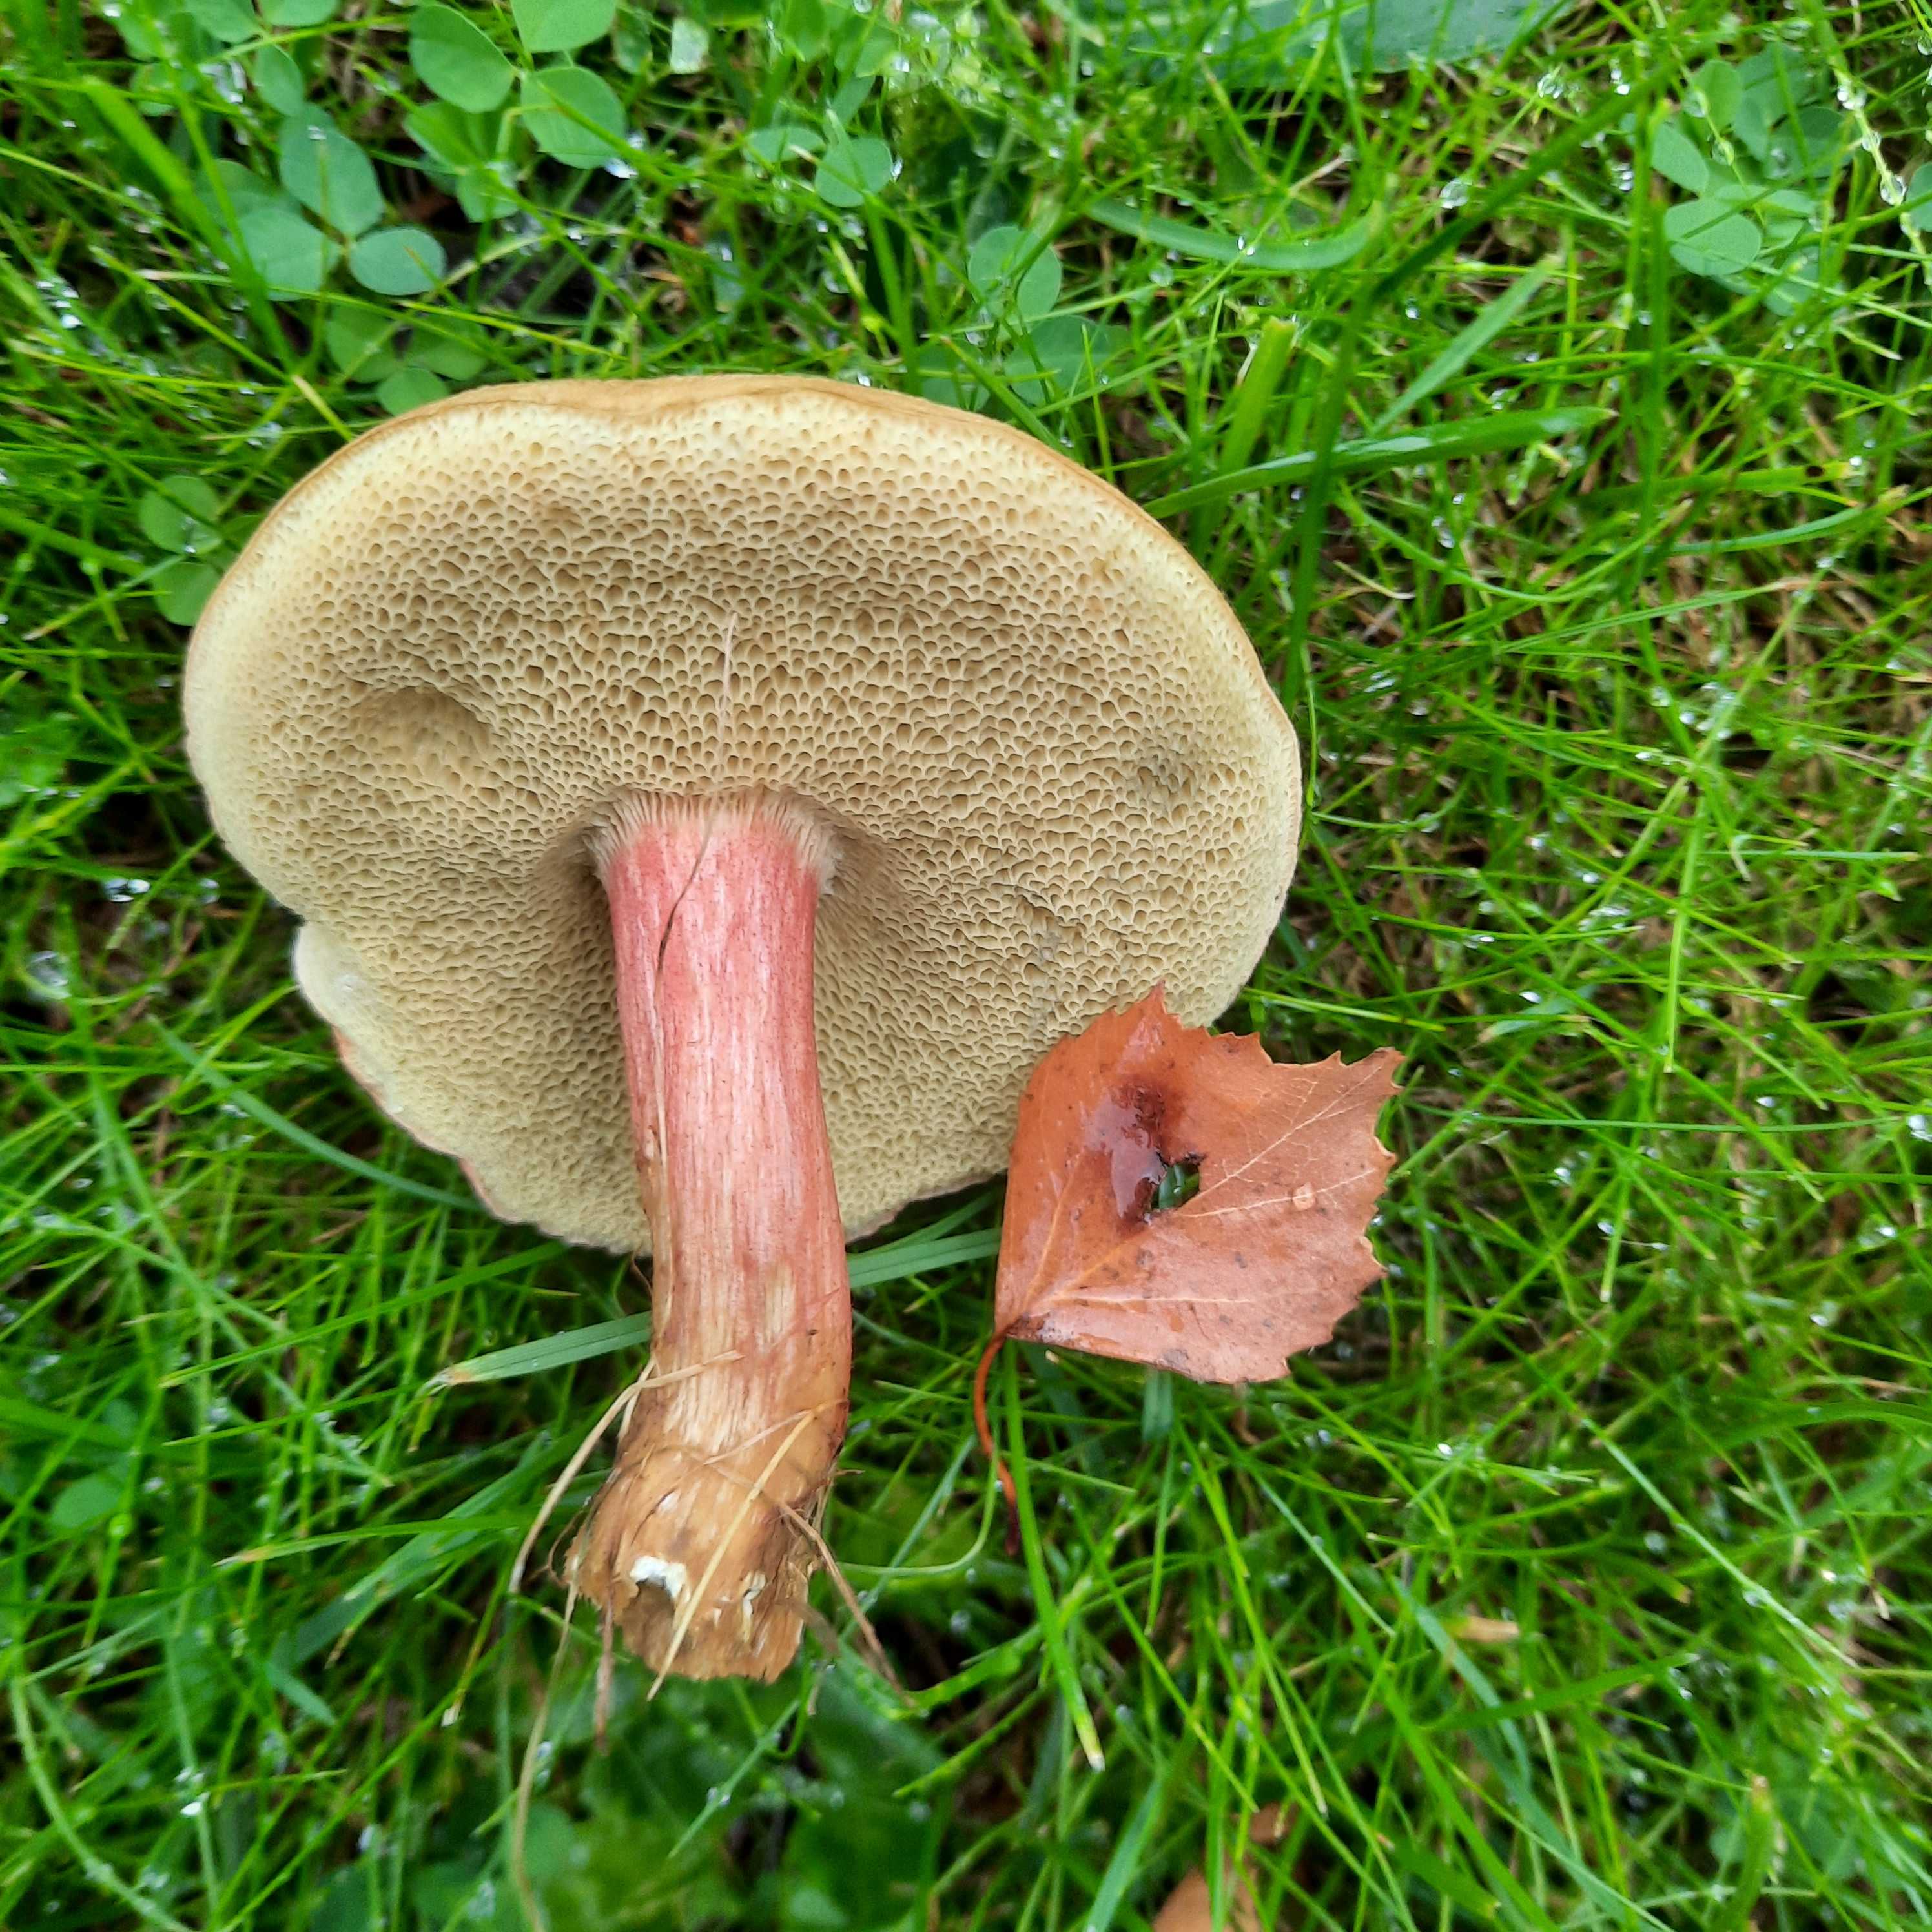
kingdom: Fungi
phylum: Basidiomycota
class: Agaricomycetes
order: Boletales
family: Boletaceae
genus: Hortiboletus
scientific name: Hortiboletus bubalinus
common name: aurora-rørhat
